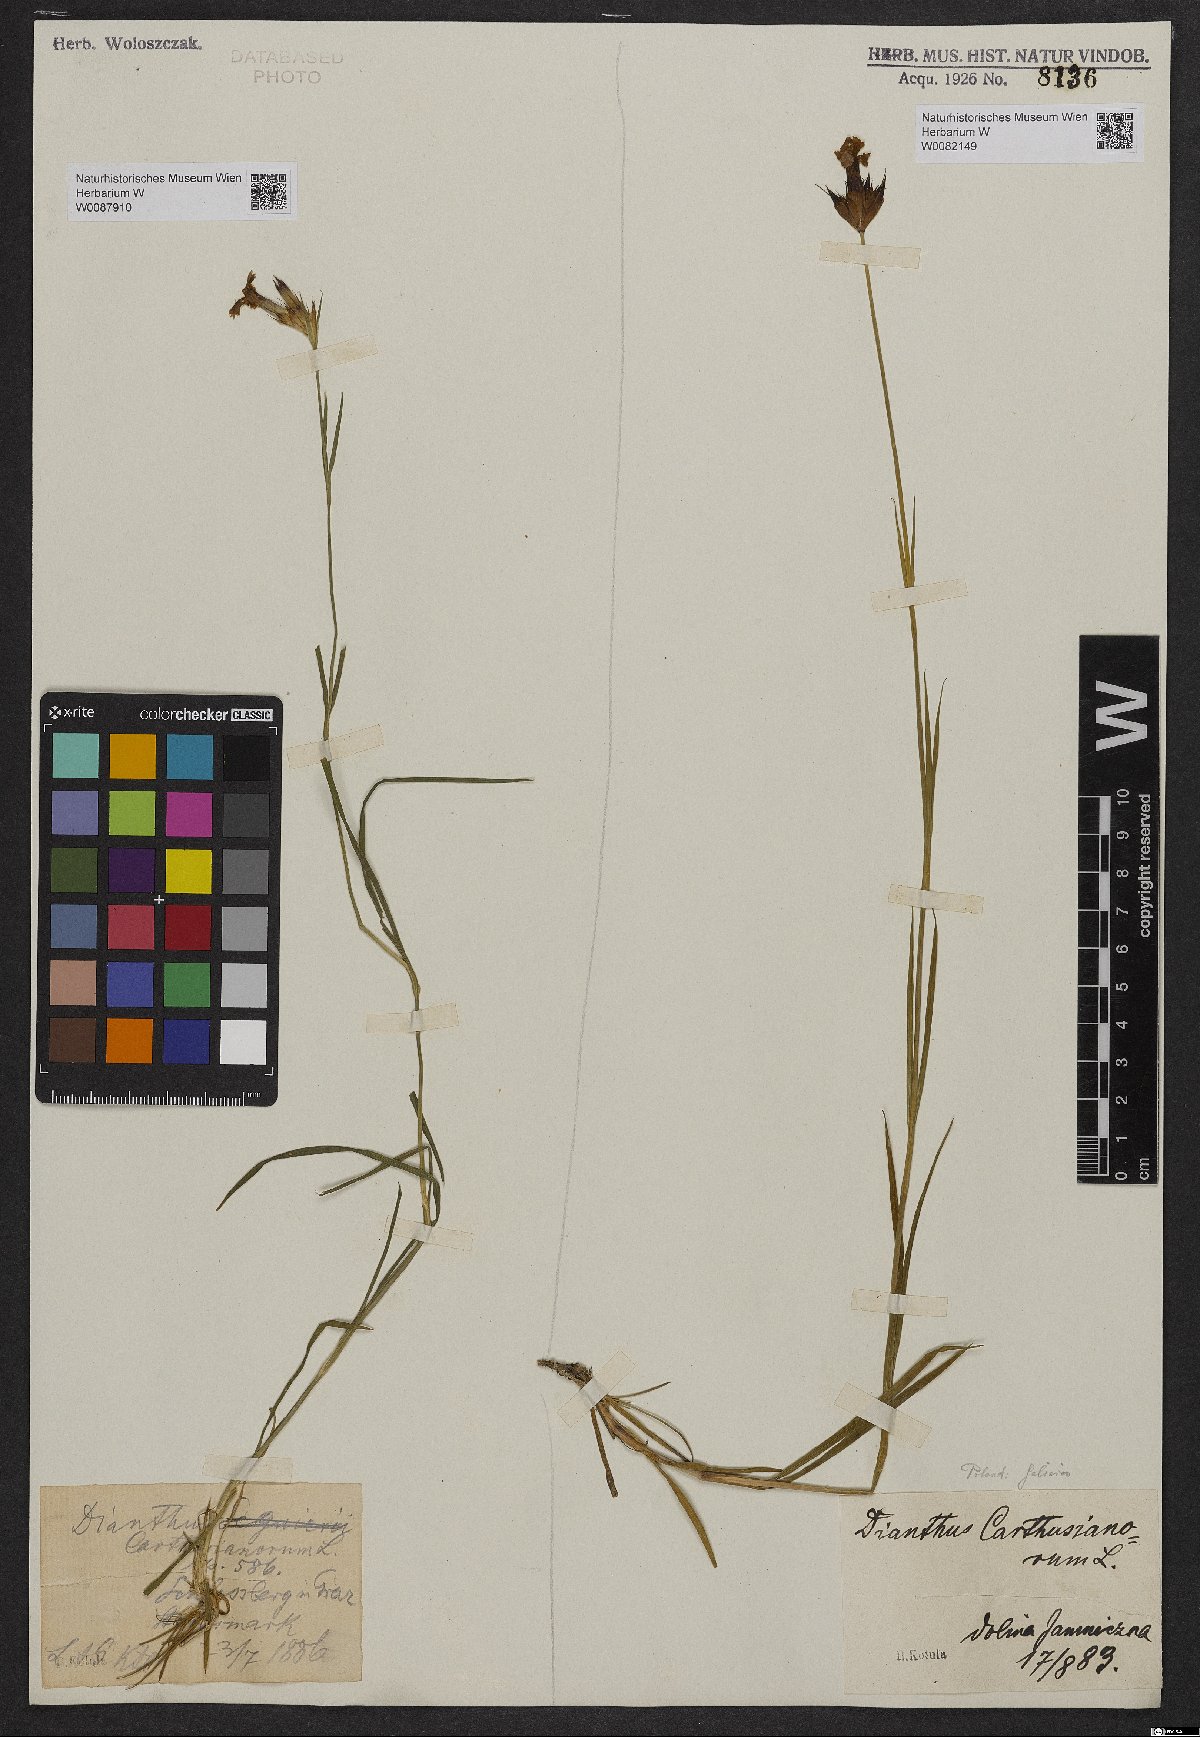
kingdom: Plantae
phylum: Tracheophyta
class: Magnoliopsida
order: Caryophyllales
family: Caryophyllaceae
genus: Dianthus
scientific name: Dianthus carthusianorum
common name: Carthusian pink
